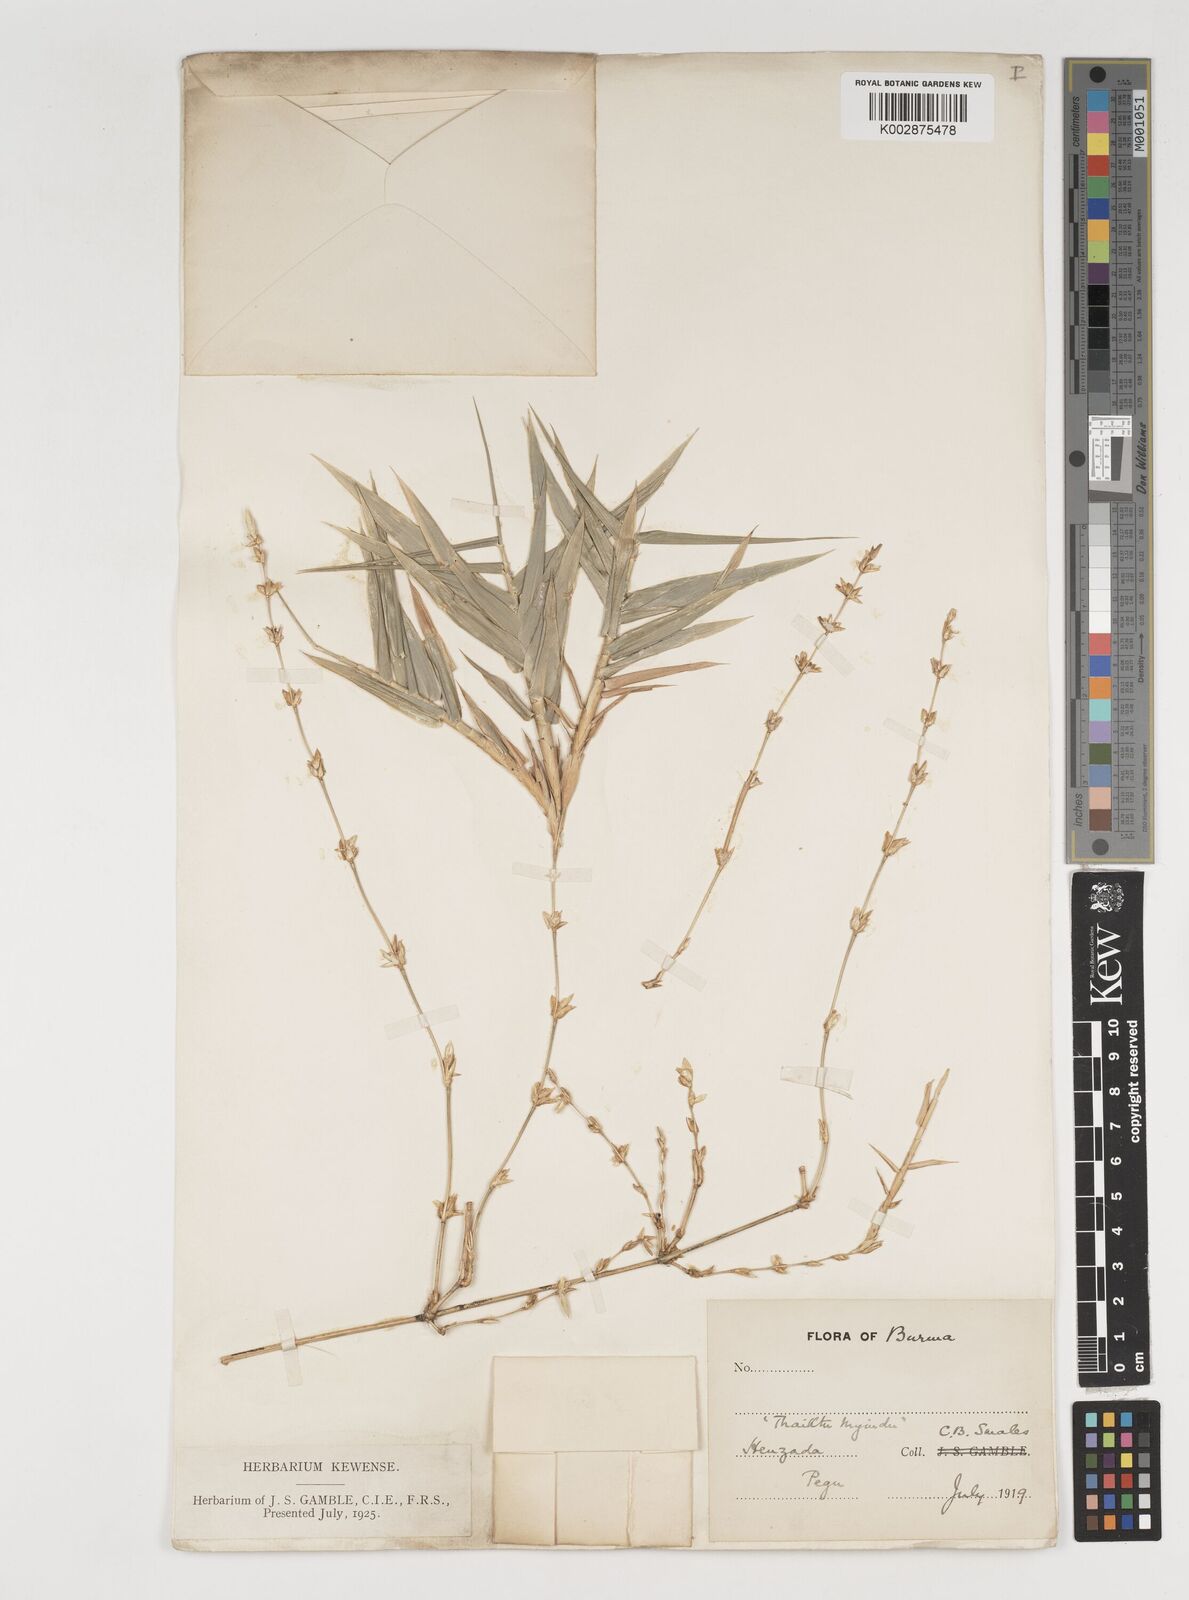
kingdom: Plantae
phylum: Tracheophyta
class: Liliopsida
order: Poales
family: Poaceae
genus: Dendrocalamus
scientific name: Dendrocalamus merrillianus
